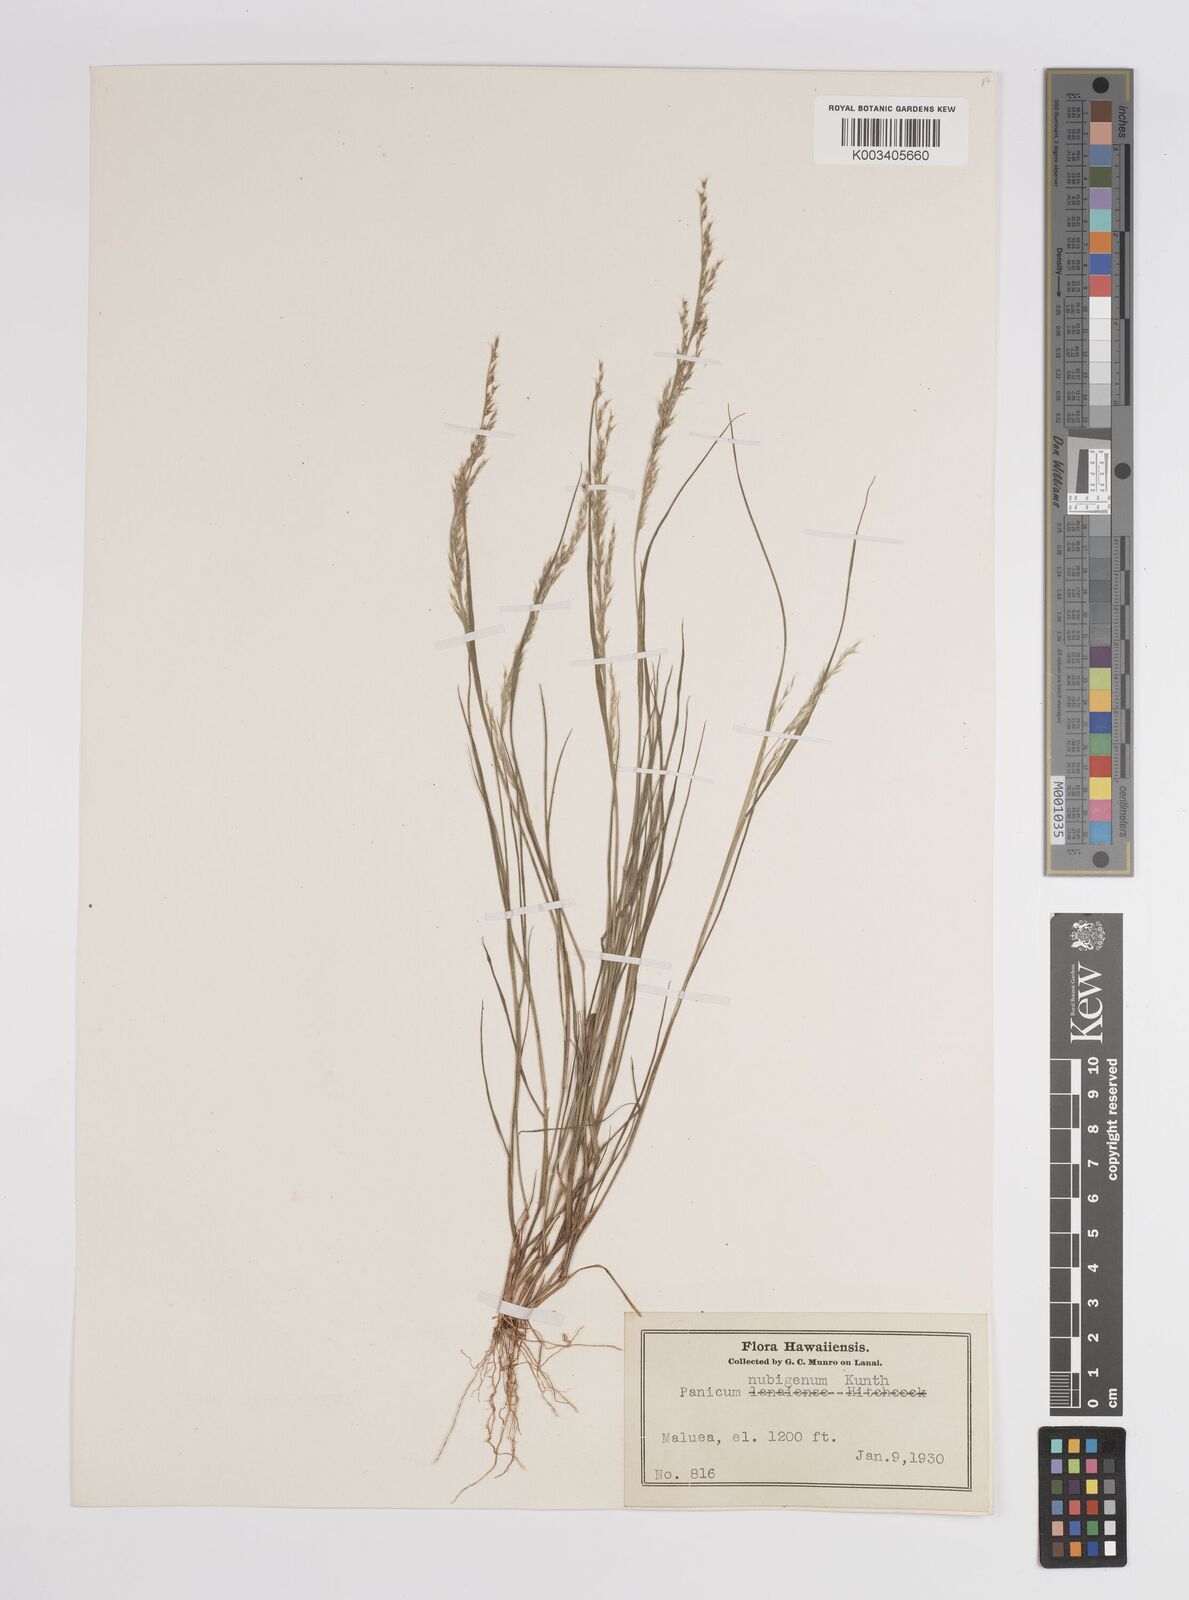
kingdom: Plantae
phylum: Tracheophyta
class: Liliopsida
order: Poales
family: Poaceae
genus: Panicum
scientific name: Panicum fauriei
